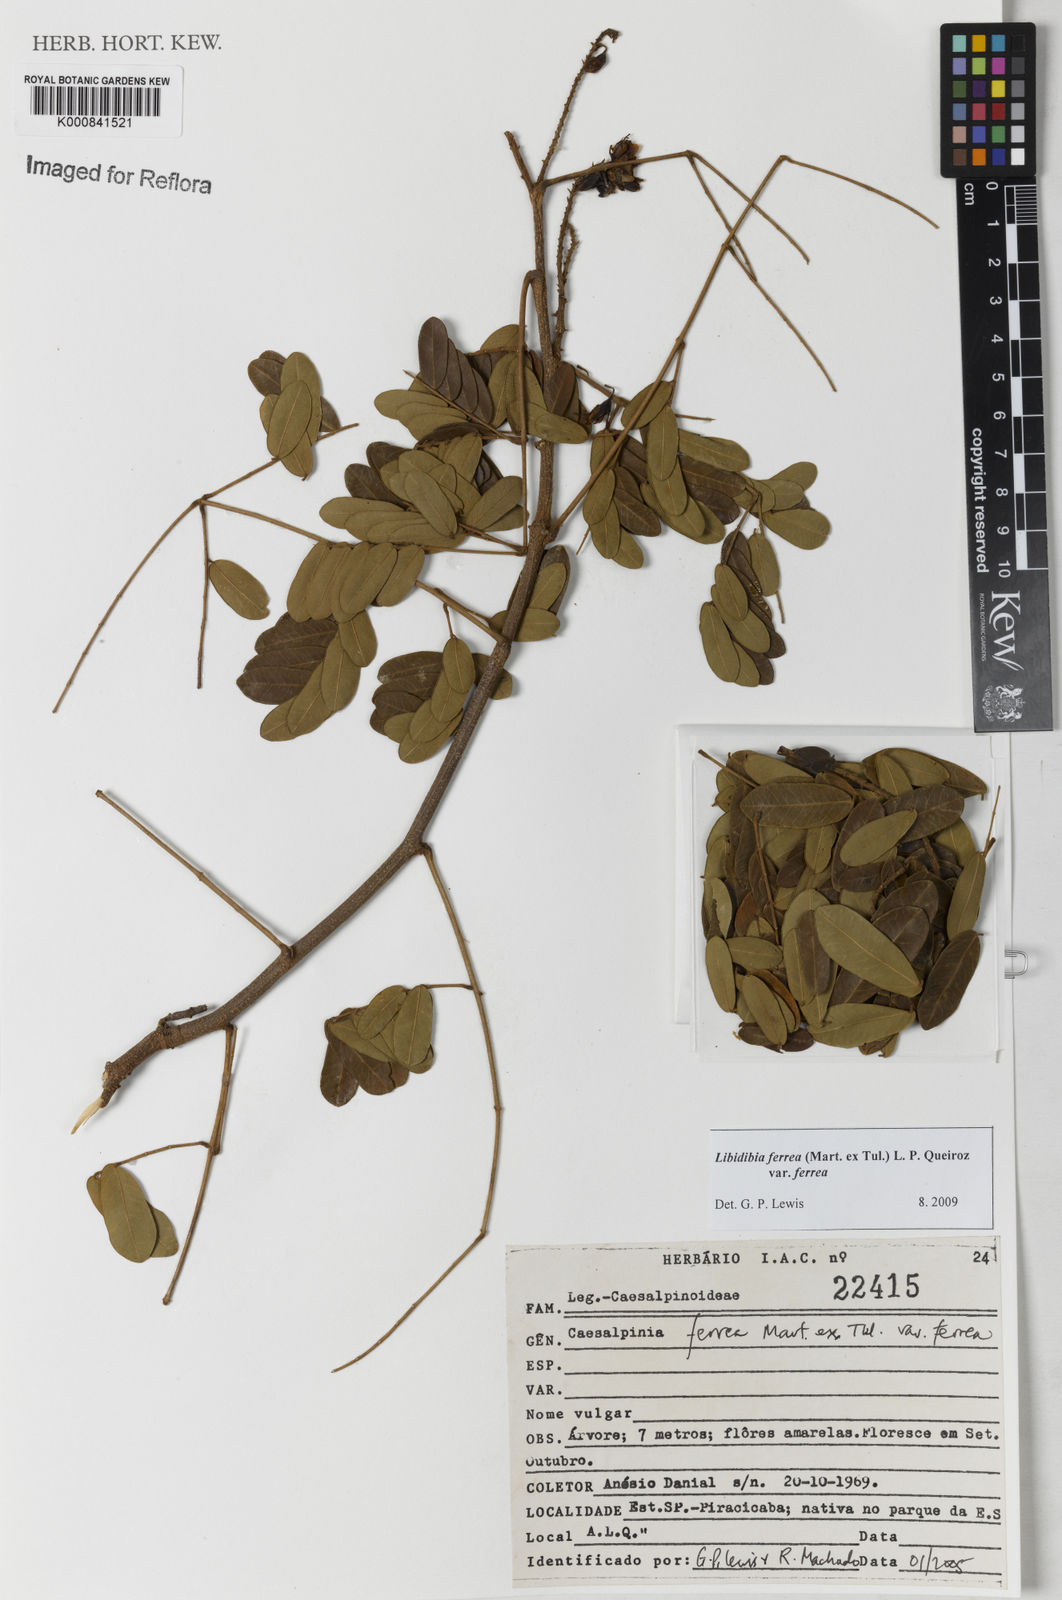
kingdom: Plantae
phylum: Tracheophyta
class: Magnoliopsida
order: Fabales
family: Fabaceae
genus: Libidibia
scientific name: Libidibia ferrea
